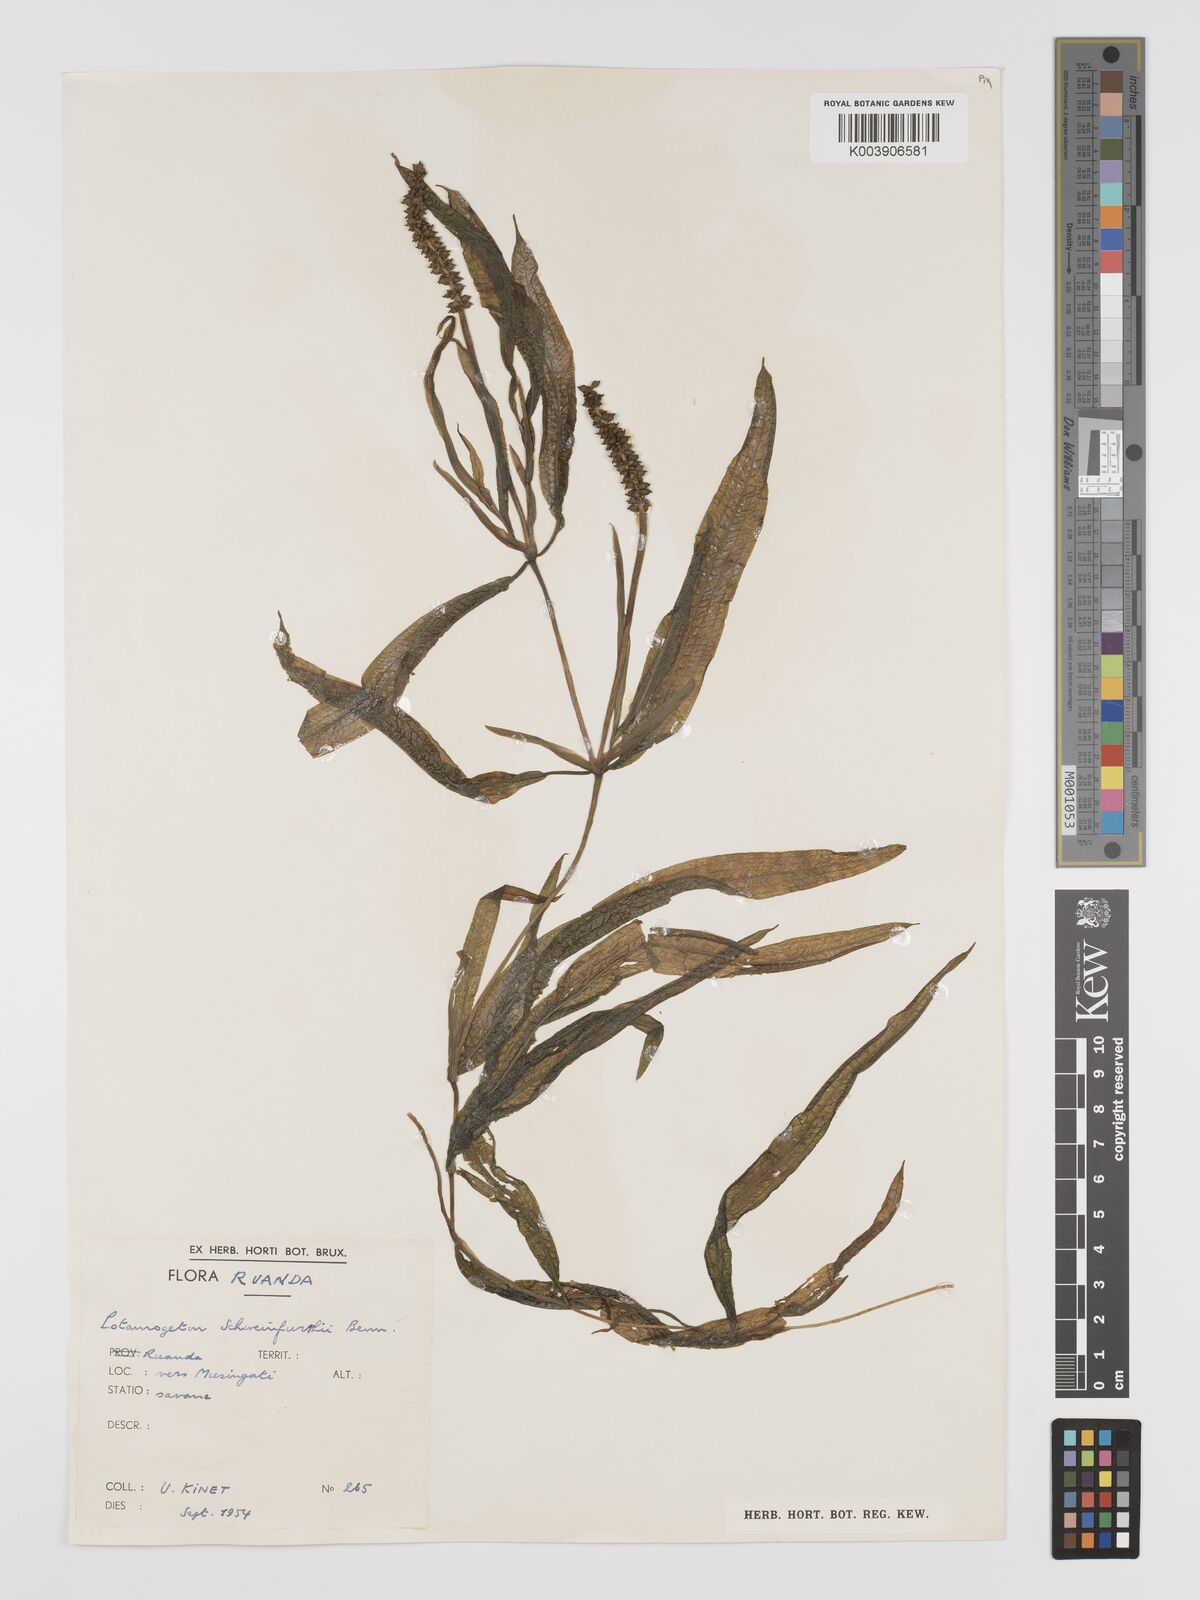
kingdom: Plantae
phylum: Tracheophyta
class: Liliopsida
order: Alismatales
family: Potamogetonaceae
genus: Potamogeton
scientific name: Potamogeton schweinfurthii
